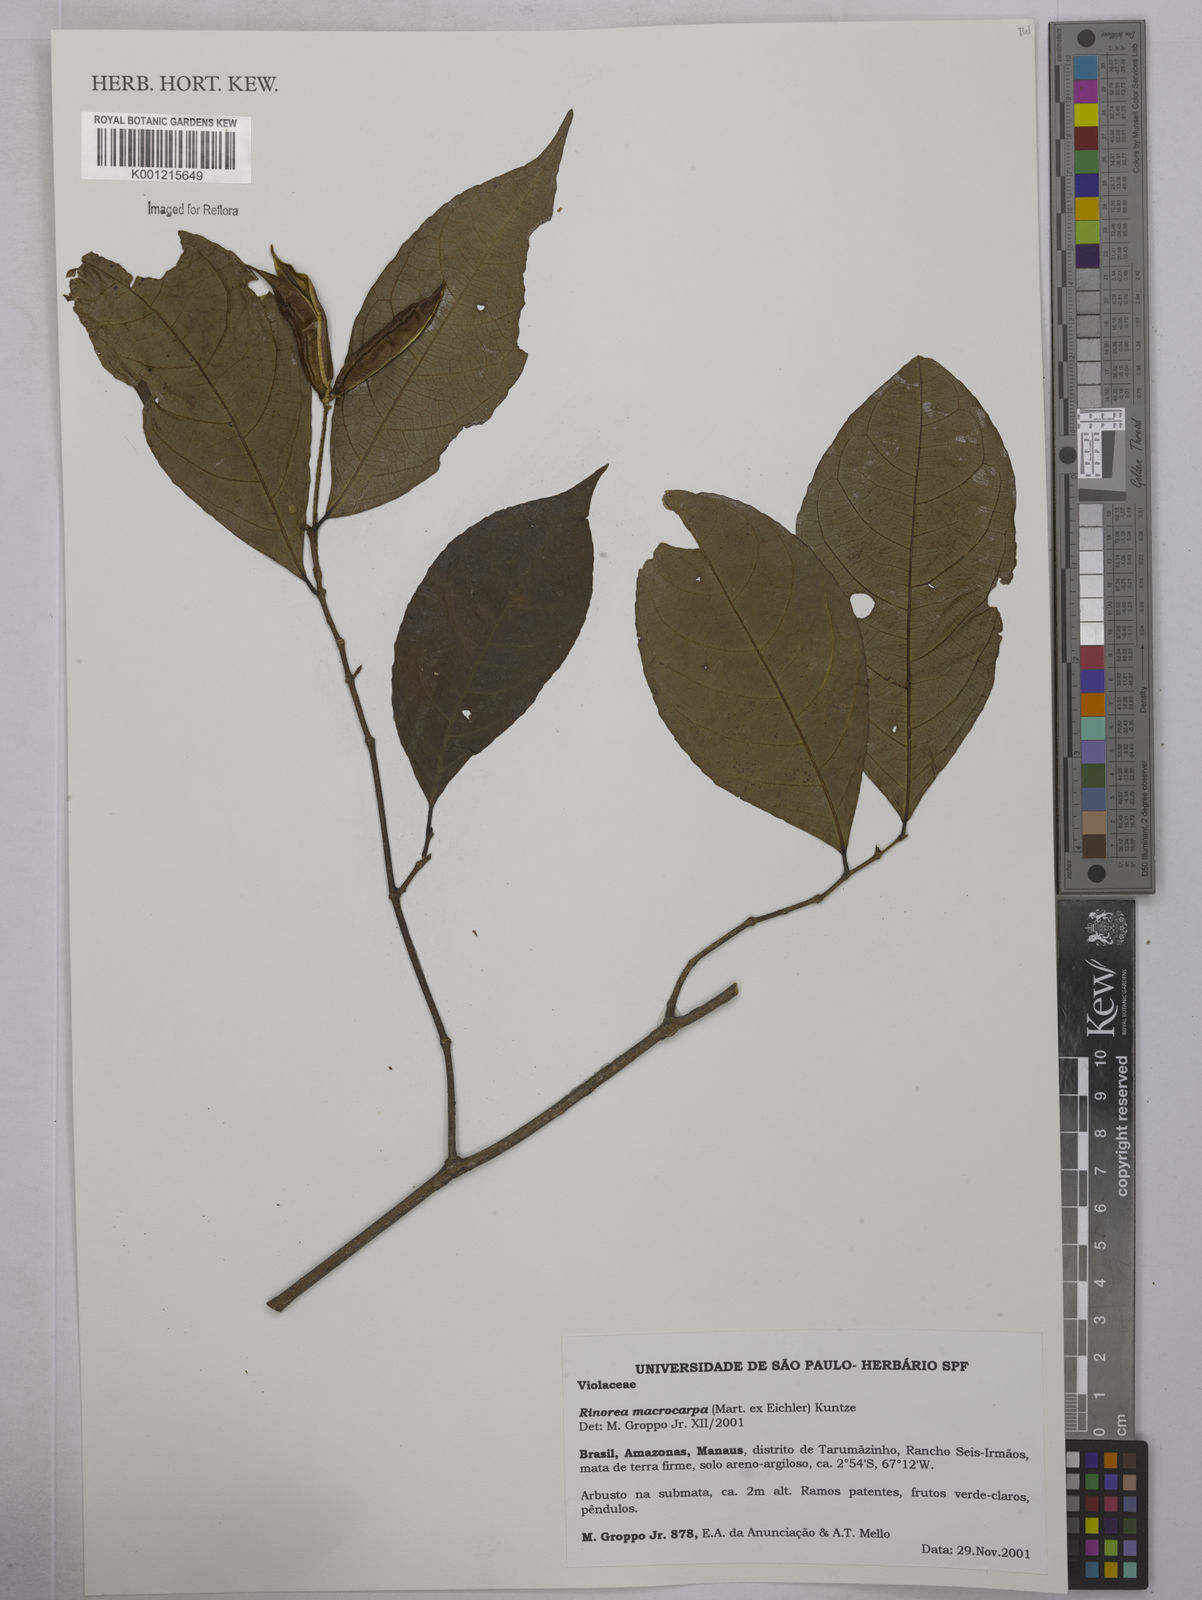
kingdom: Plantae
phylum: Tracheophyta
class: Magnoliopsida
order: Malpighiales
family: Violaceae
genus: Rinorea
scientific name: Rinorea macrocarpa
